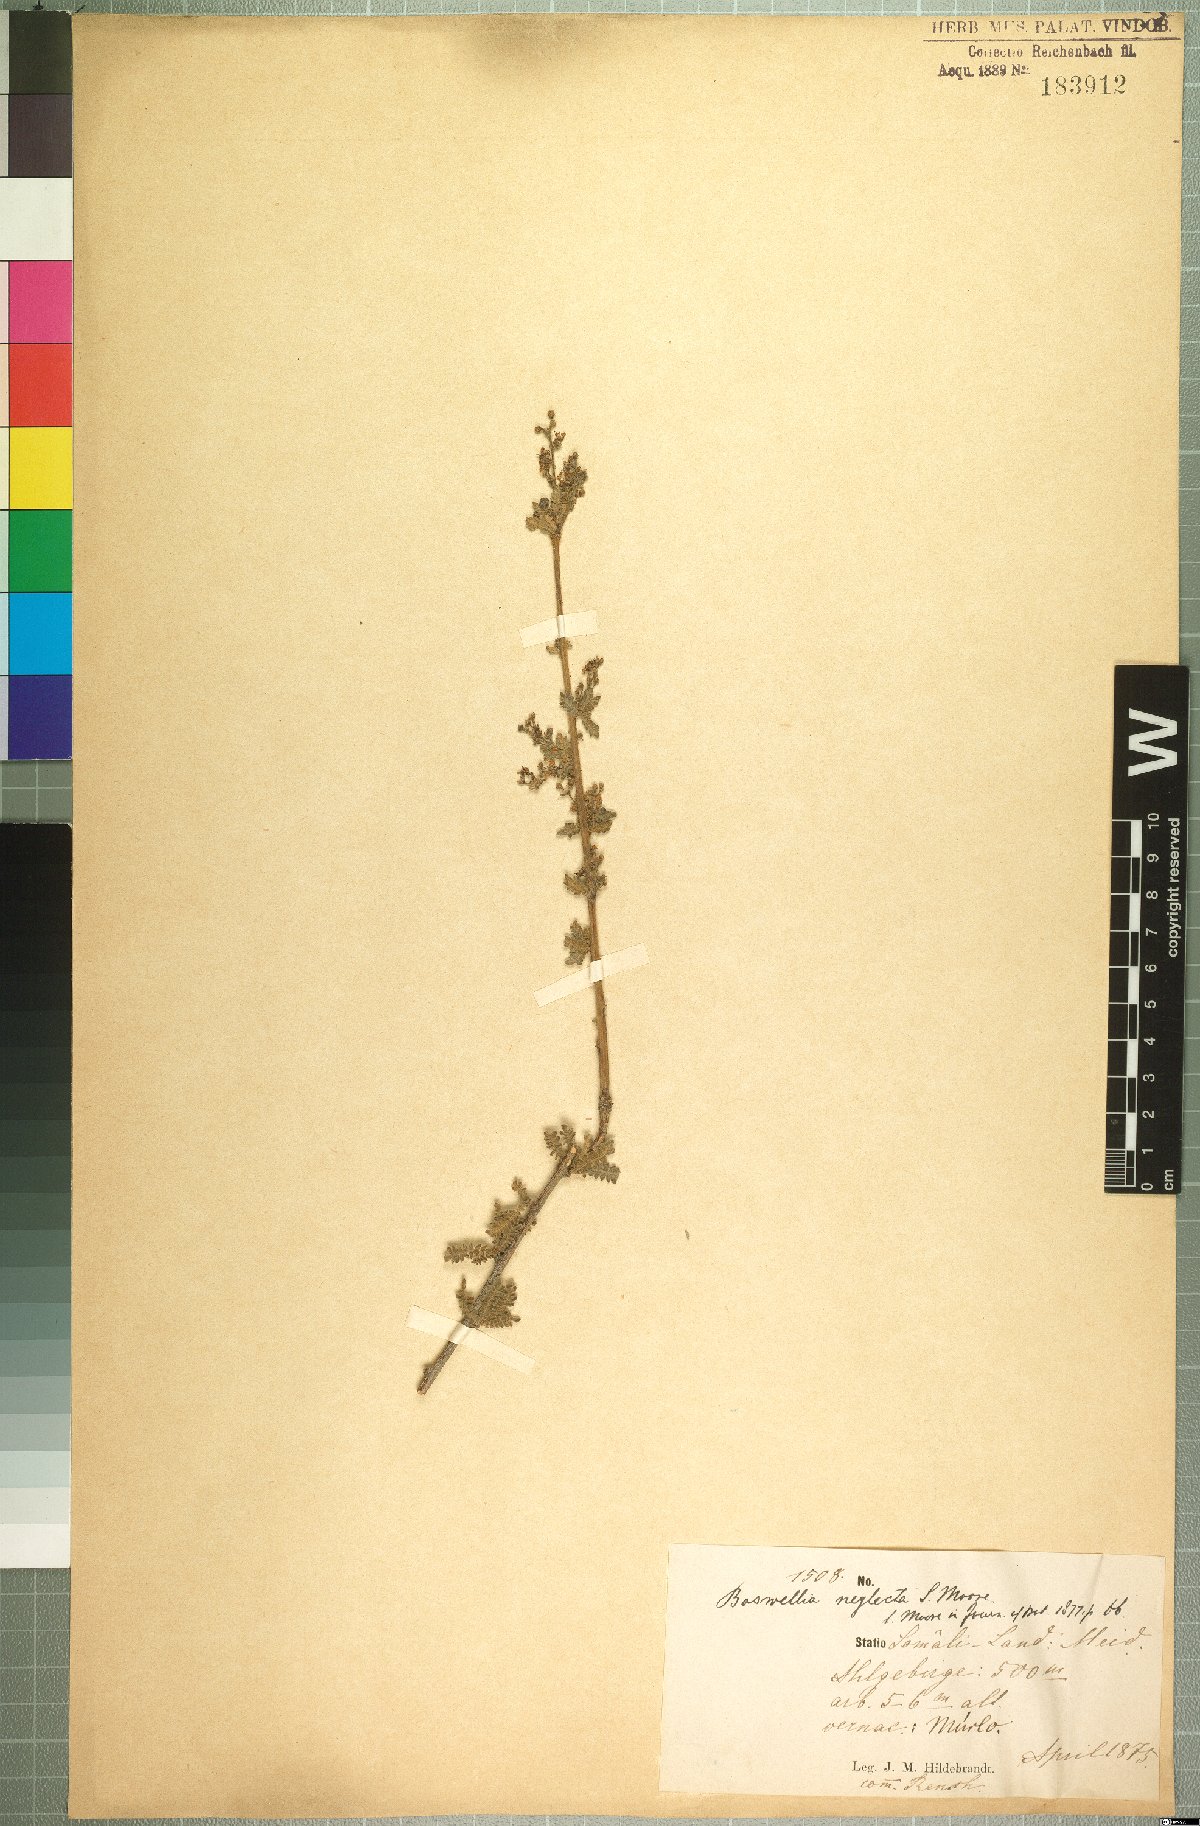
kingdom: Plantae
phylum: Tracheophyta
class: Magnoliopsida
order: Sapindales
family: Burseraceae
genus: Boswellia
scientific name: Boswellia neglecta
